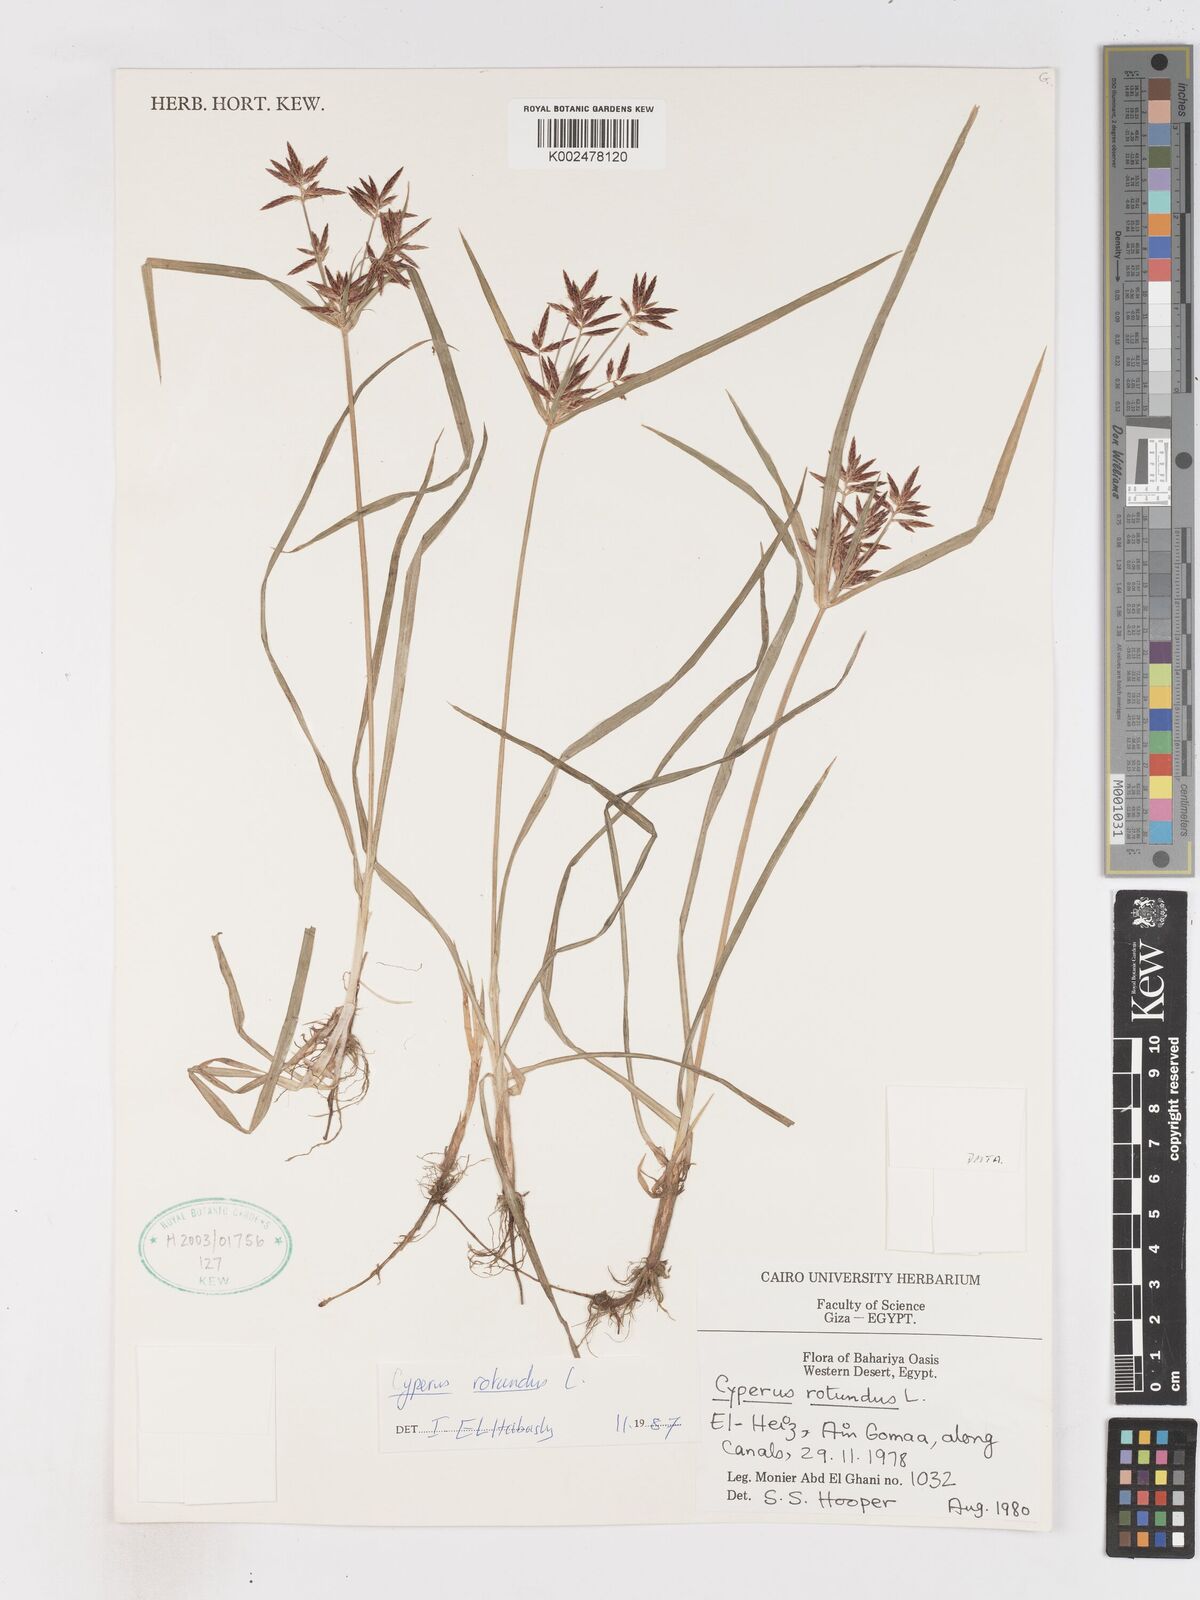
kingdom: Plantae
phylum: Tracheophyta
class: Liliopsida
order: Poales
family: Cyperaceae
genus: Cyperus
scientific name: Cyperus rotundus
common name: Nutgrass
